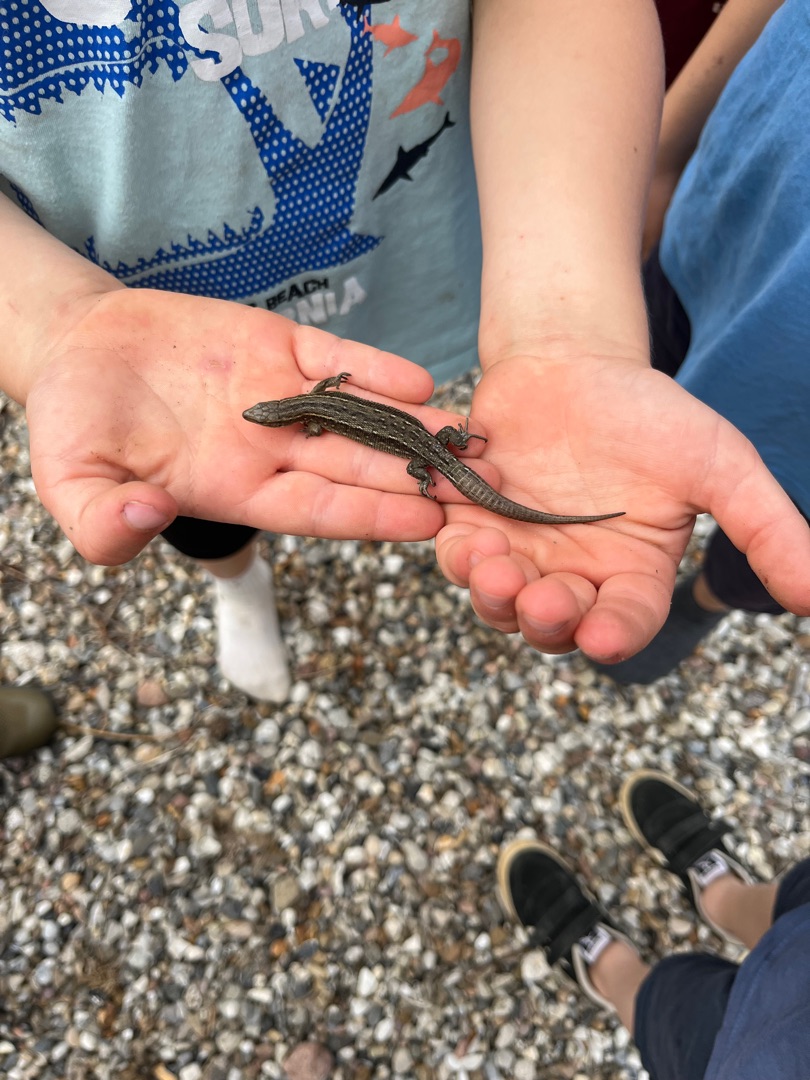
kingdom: Animalia
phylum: Chordata
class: Squamata
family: Lacertidae
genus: Zootoca
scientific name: Zootoca vivipara
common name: Skovfirben
